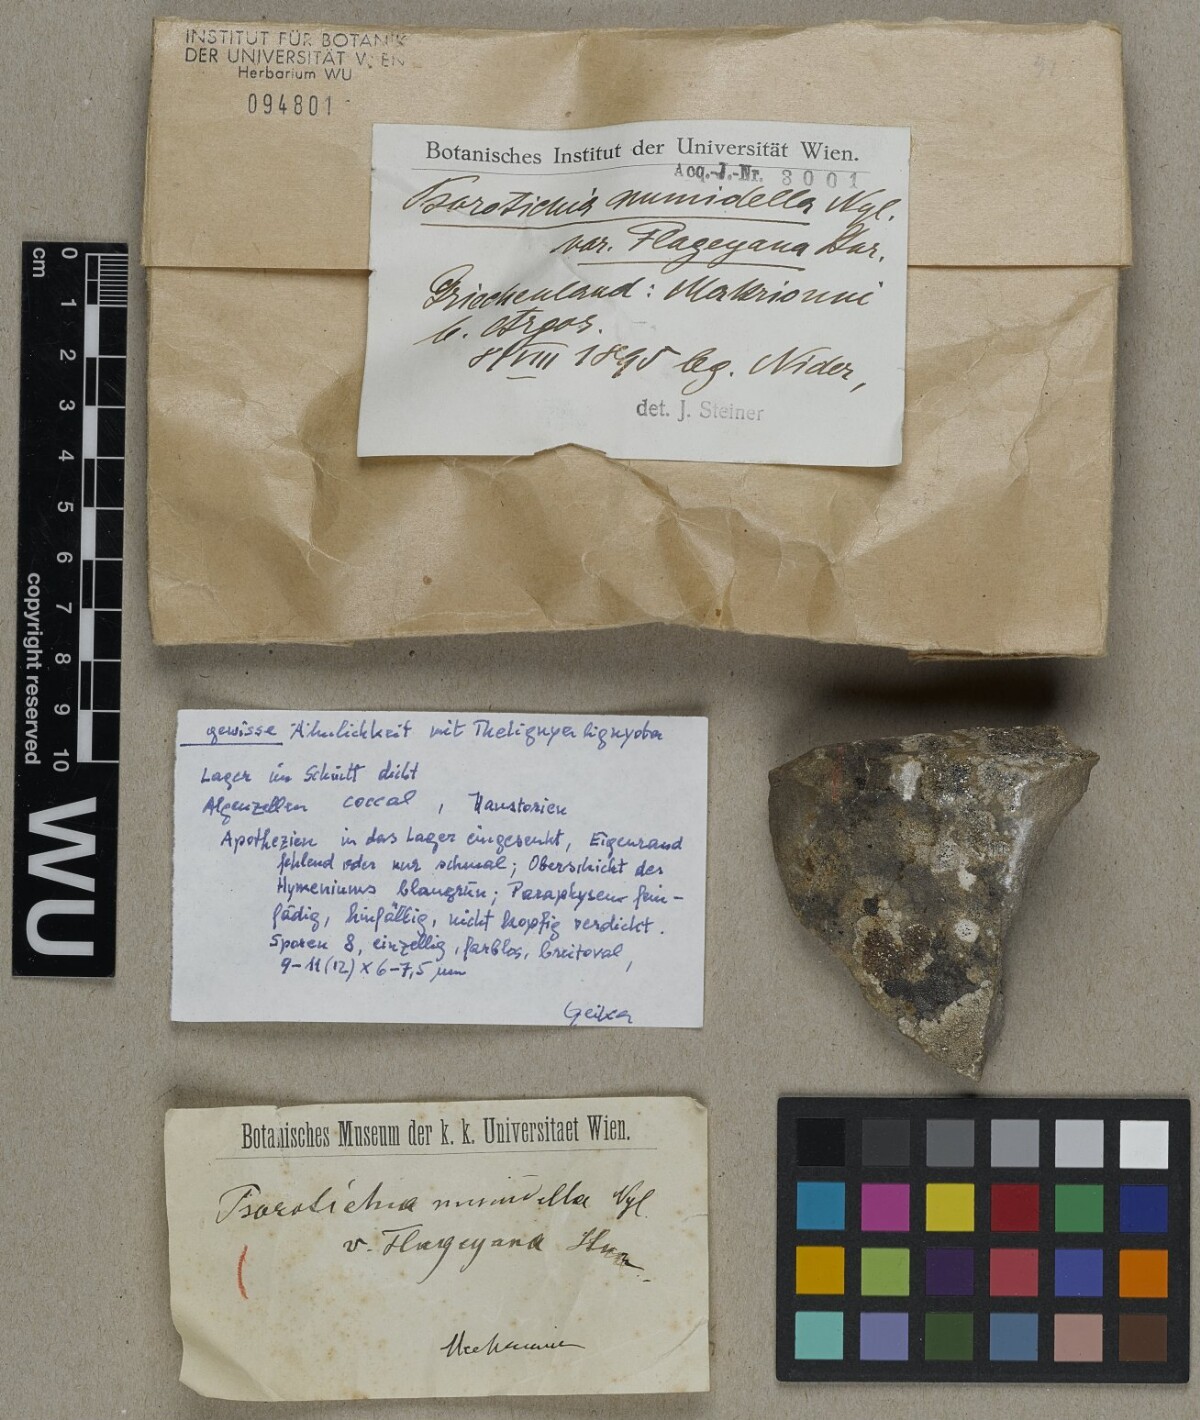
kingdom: Fungi
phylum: Ascomycota
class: Lichinomycetes
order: Lichinales
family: Lichinaceae
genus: Psorotichia
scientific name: Psorotichia
